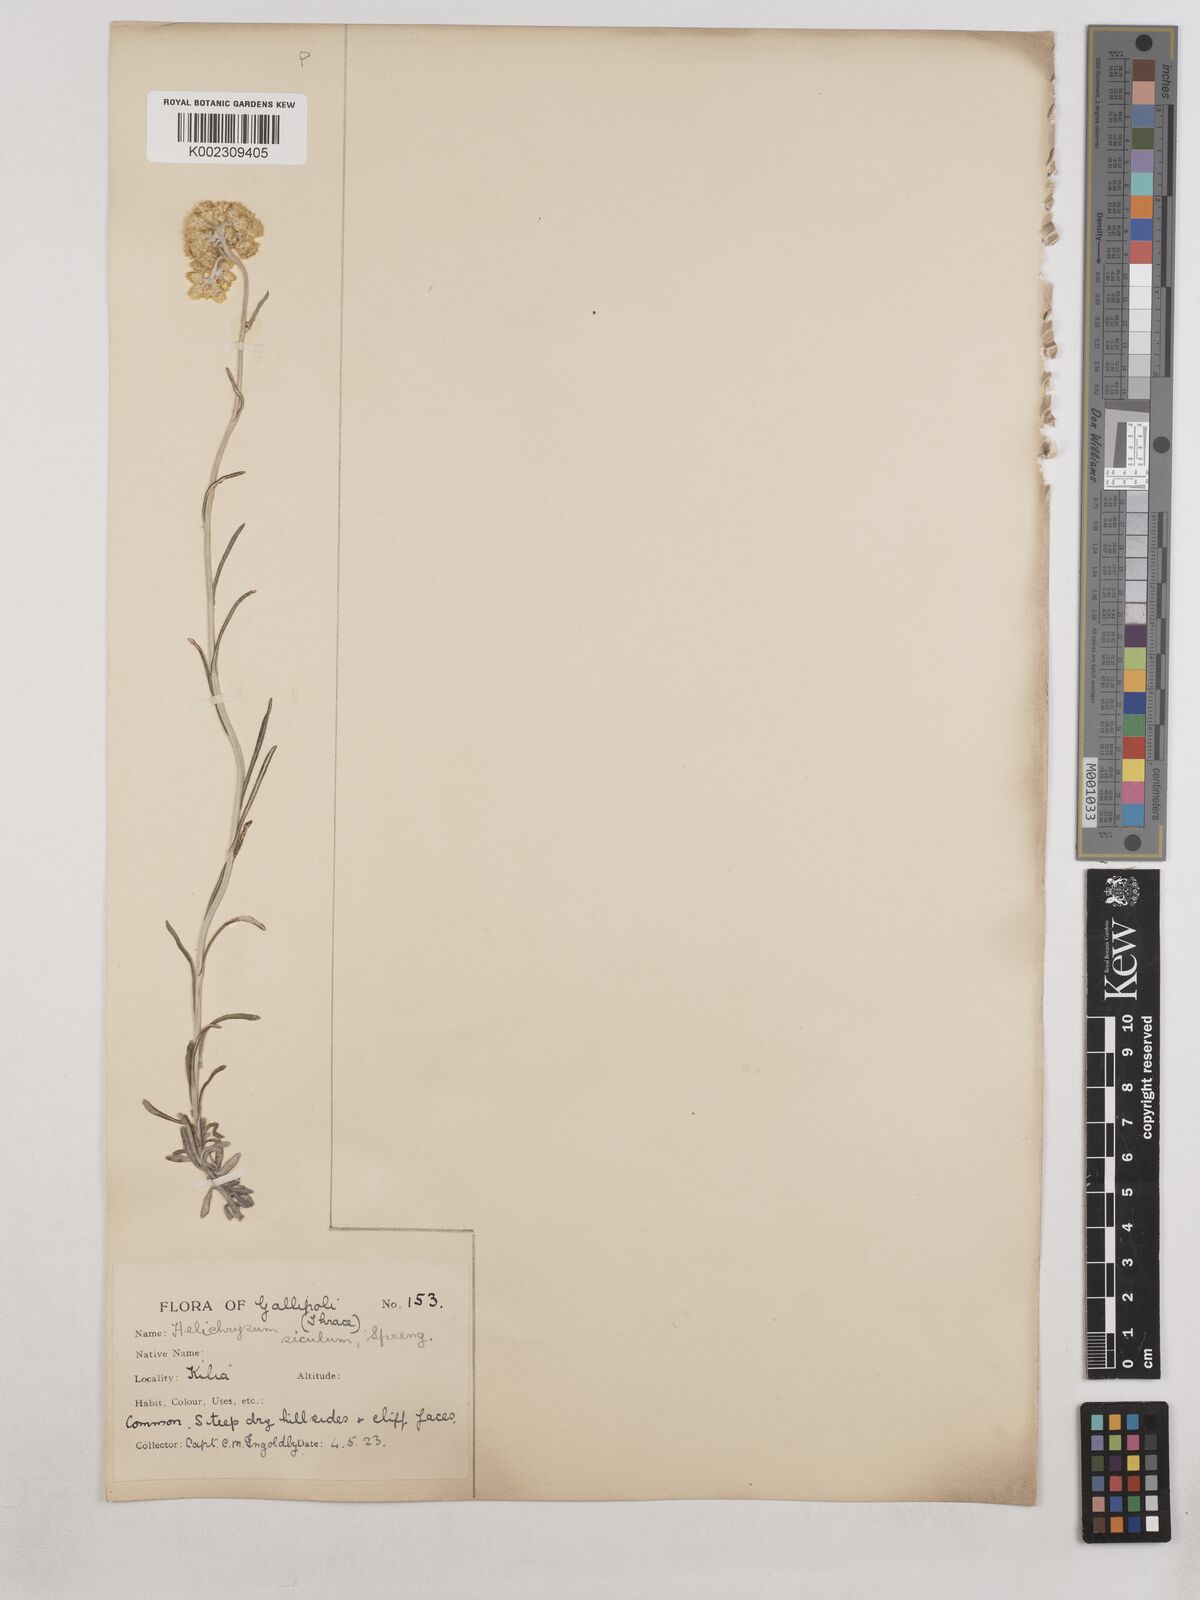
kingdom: Plantae
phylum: Tracheophyta
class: Magnoliopsida
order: Asterales
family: Asteraceae
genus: Helichrysum
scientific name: Helichrysum stoechas
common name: Goldilocks
